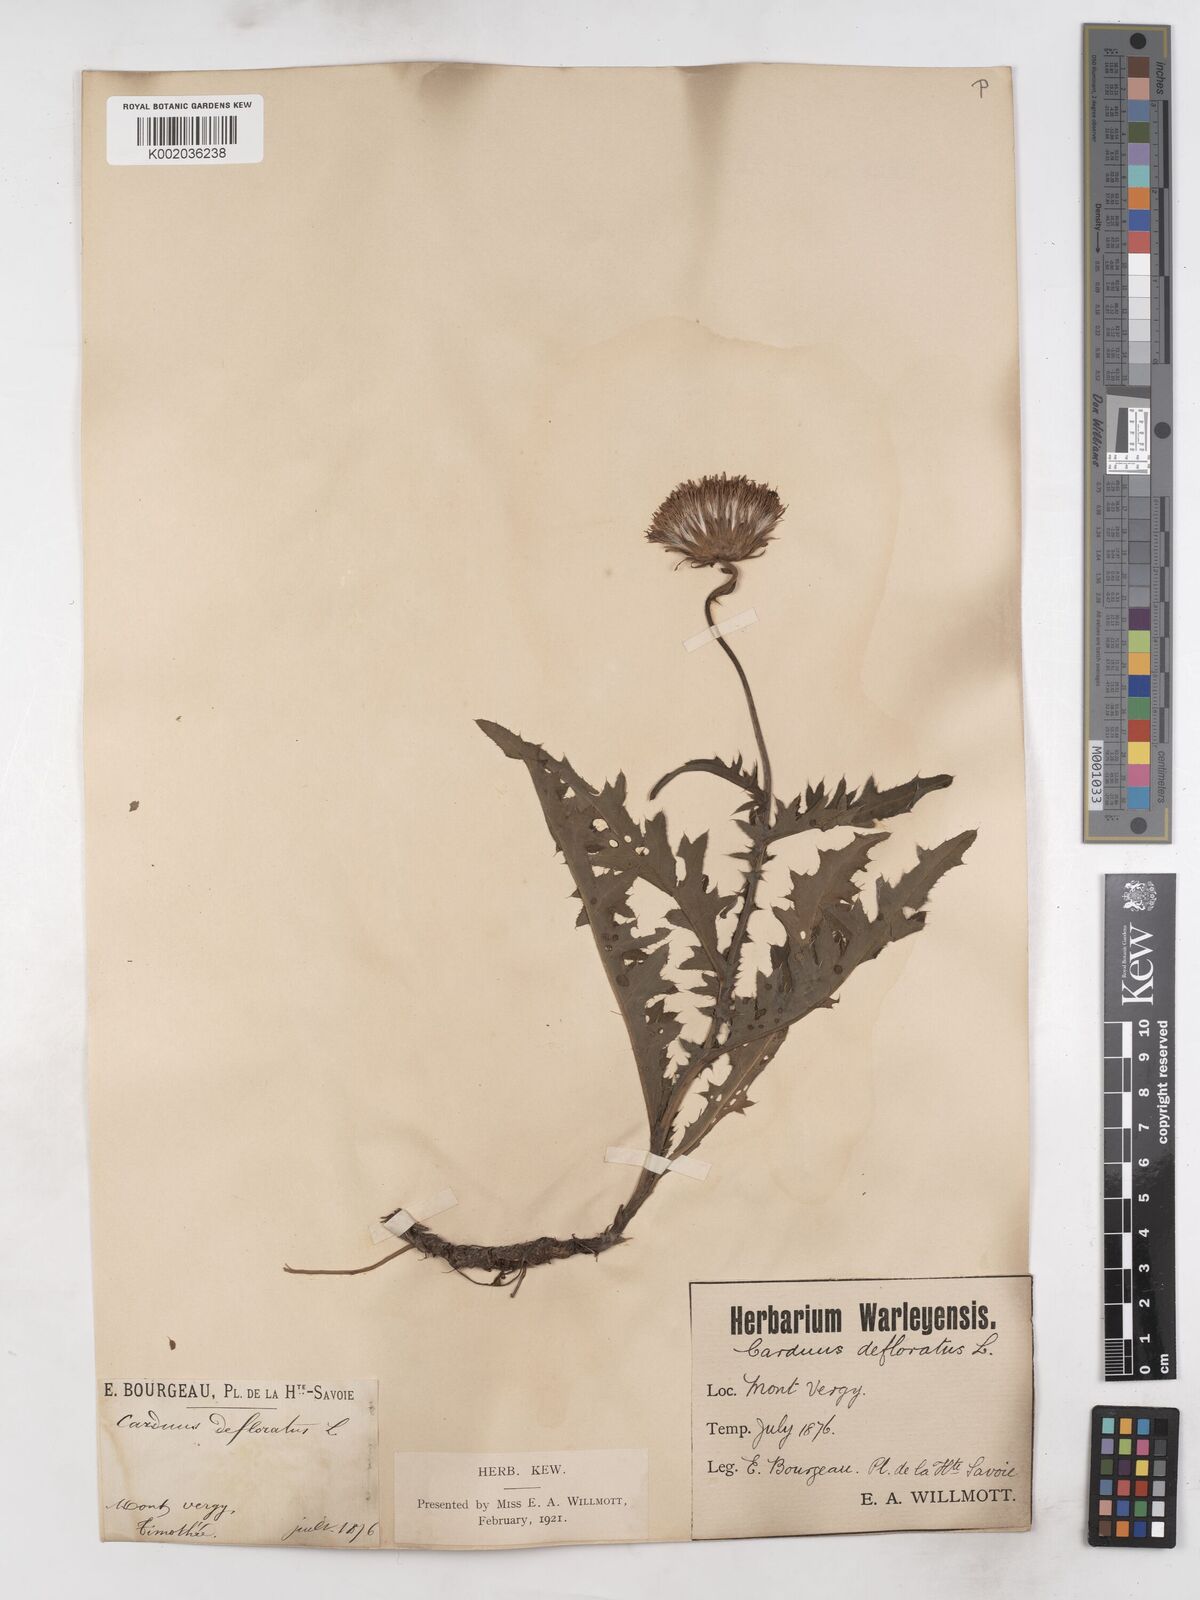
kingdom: Plantae
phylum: Tracheophyta
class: Magnoliopsida
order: Asterales
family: Asteraceae
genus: Carduus
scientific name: Carduus defloratus
